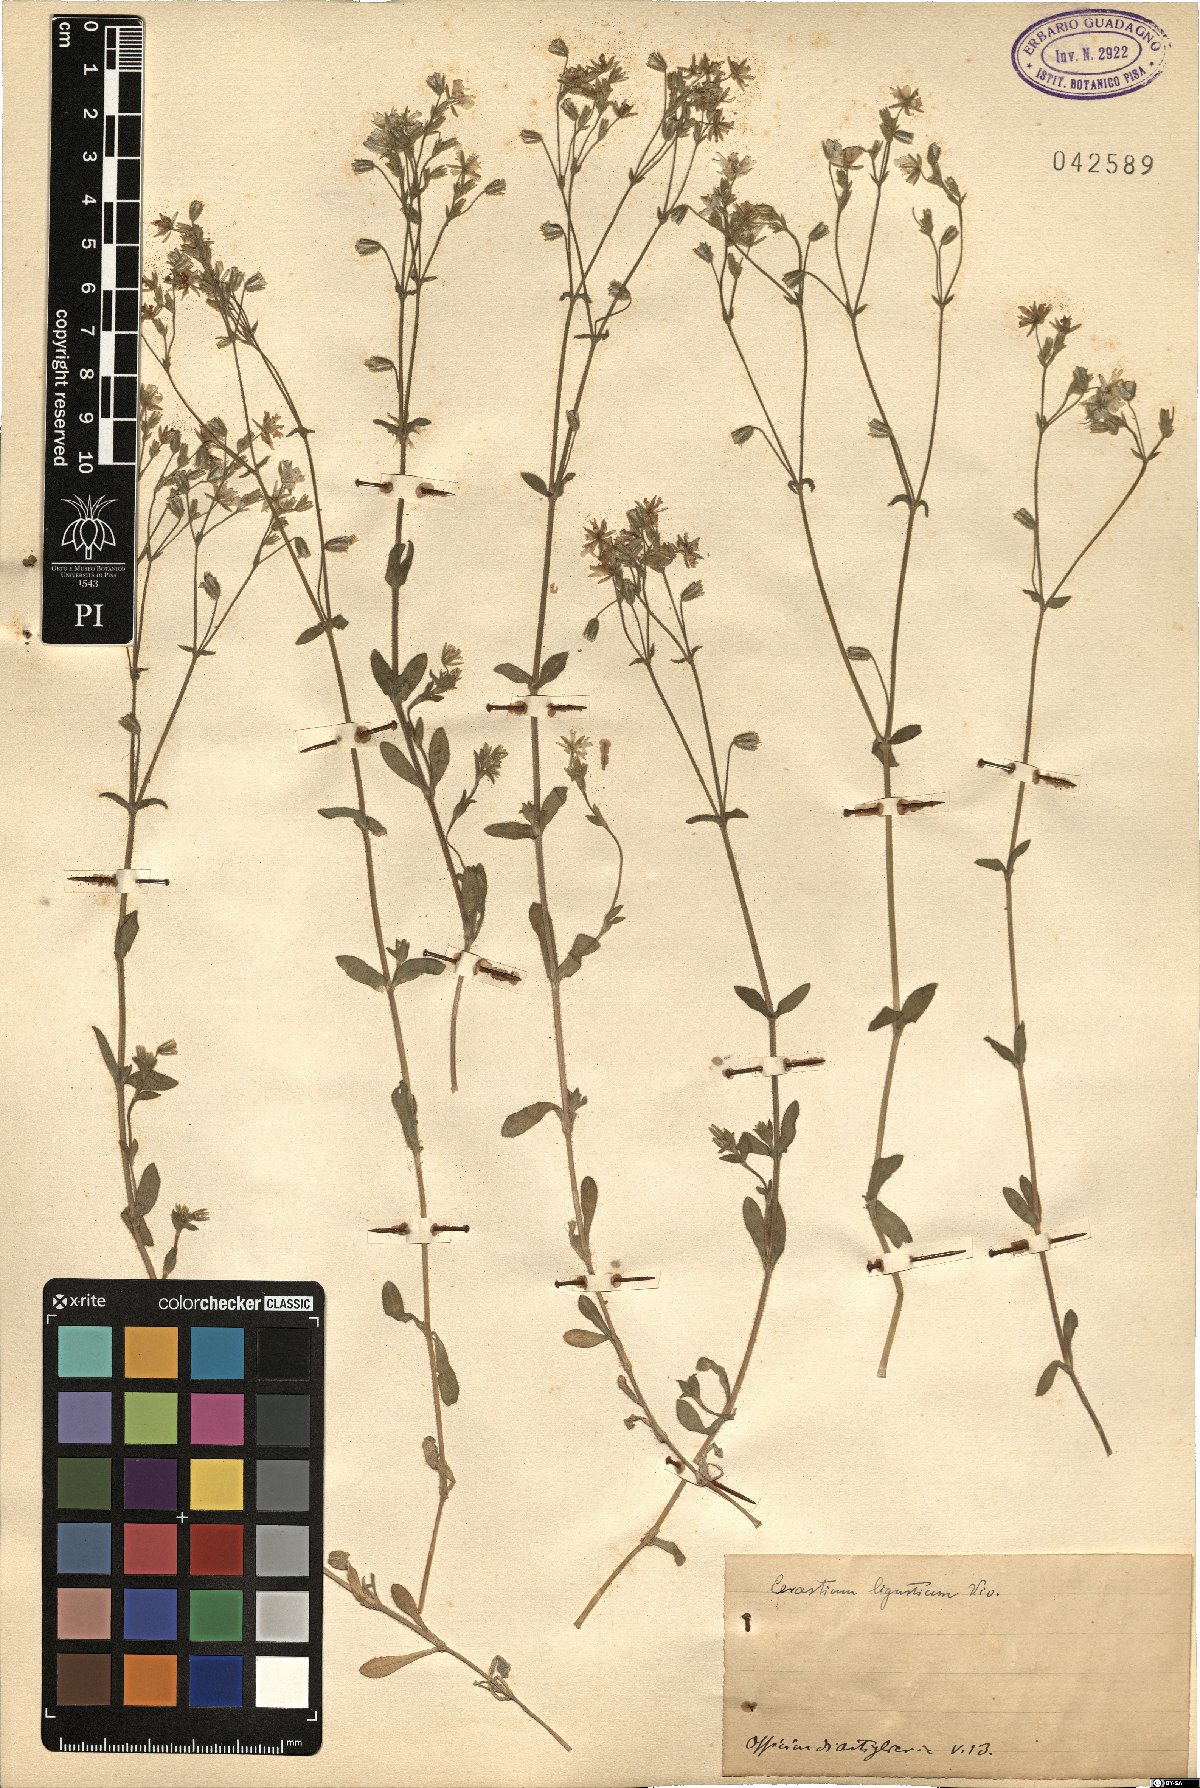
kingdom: Plantae
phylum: Tracheophyta
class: Magnoliopsida
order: Caryophyllales
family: Caryophyllaceae
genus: Cerastium
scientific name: Cerastium ligusticum
